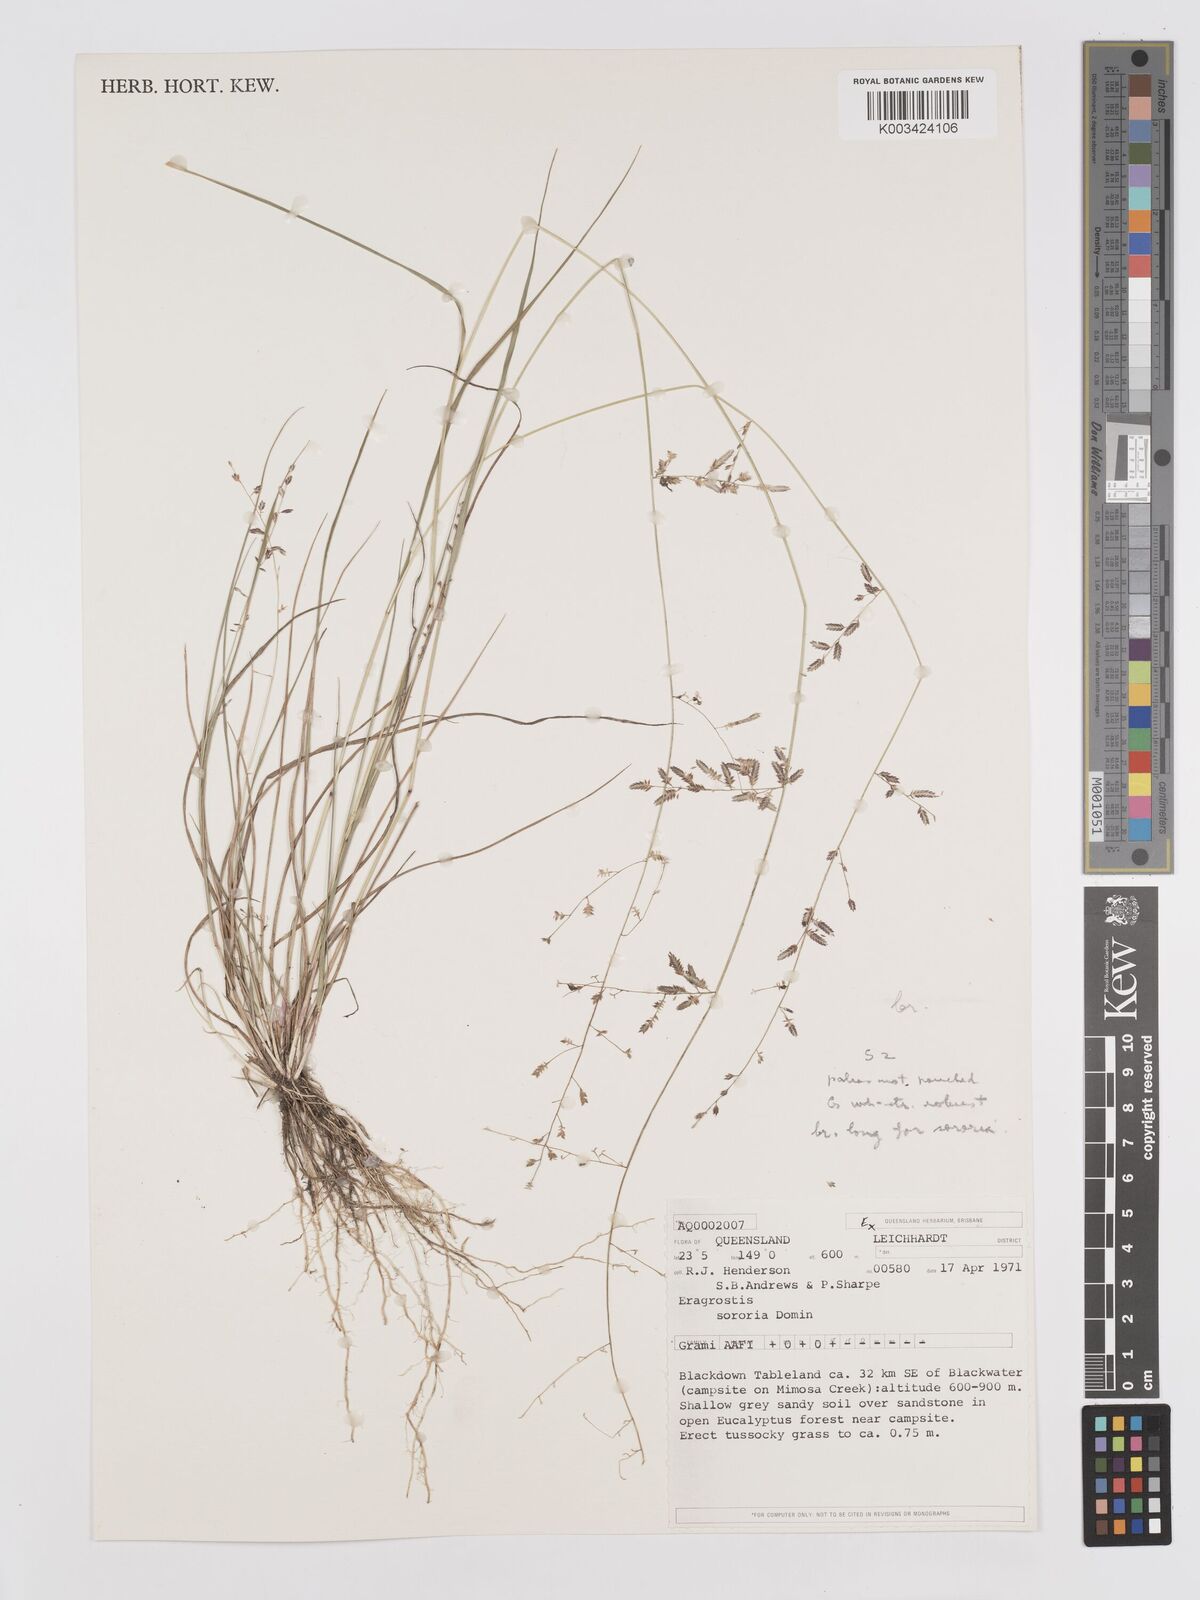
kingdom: Plantae
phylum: Tracheophyta
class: Liliopsida
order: Poales
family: Poaceae
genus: Eragrostis
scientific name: Eragrostis brownii
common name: Lovegrass
